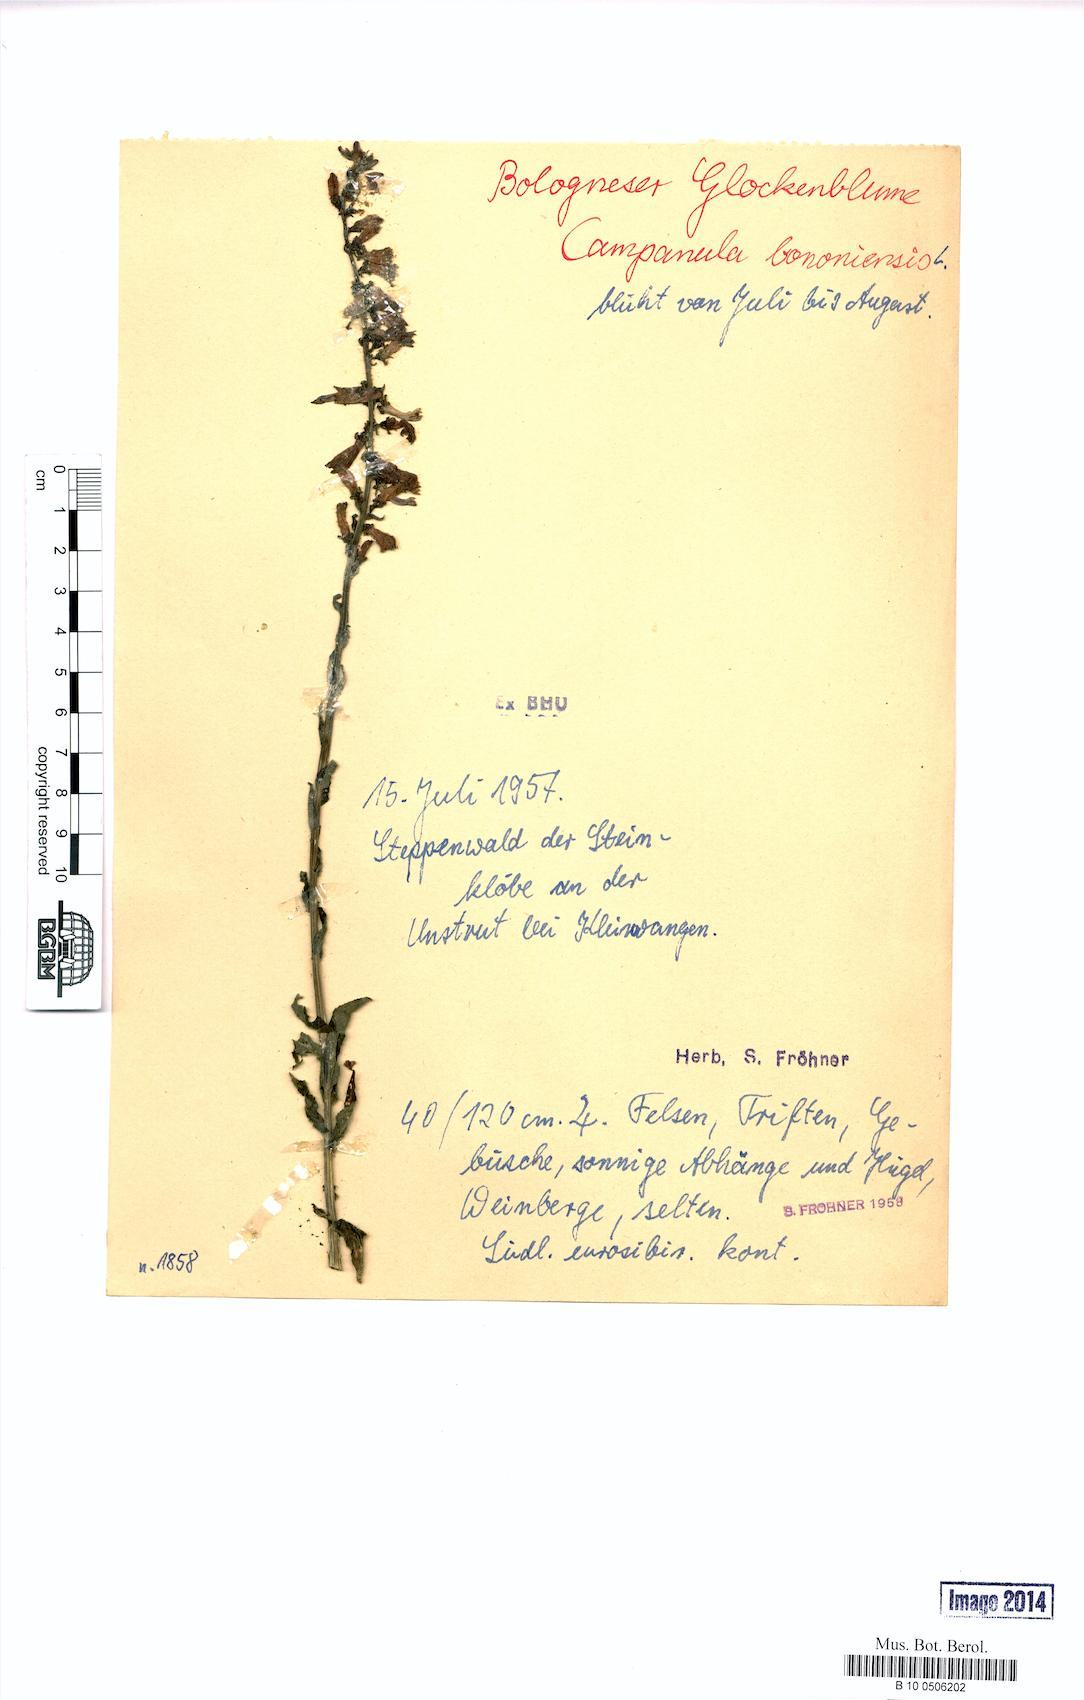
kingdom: Plantae
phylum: Tracheophyta
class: Magnoliopsida
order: Asterales
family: Campanulaceae
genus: Campanula
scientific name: Campanula bononiensis
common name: Pale bellflower
